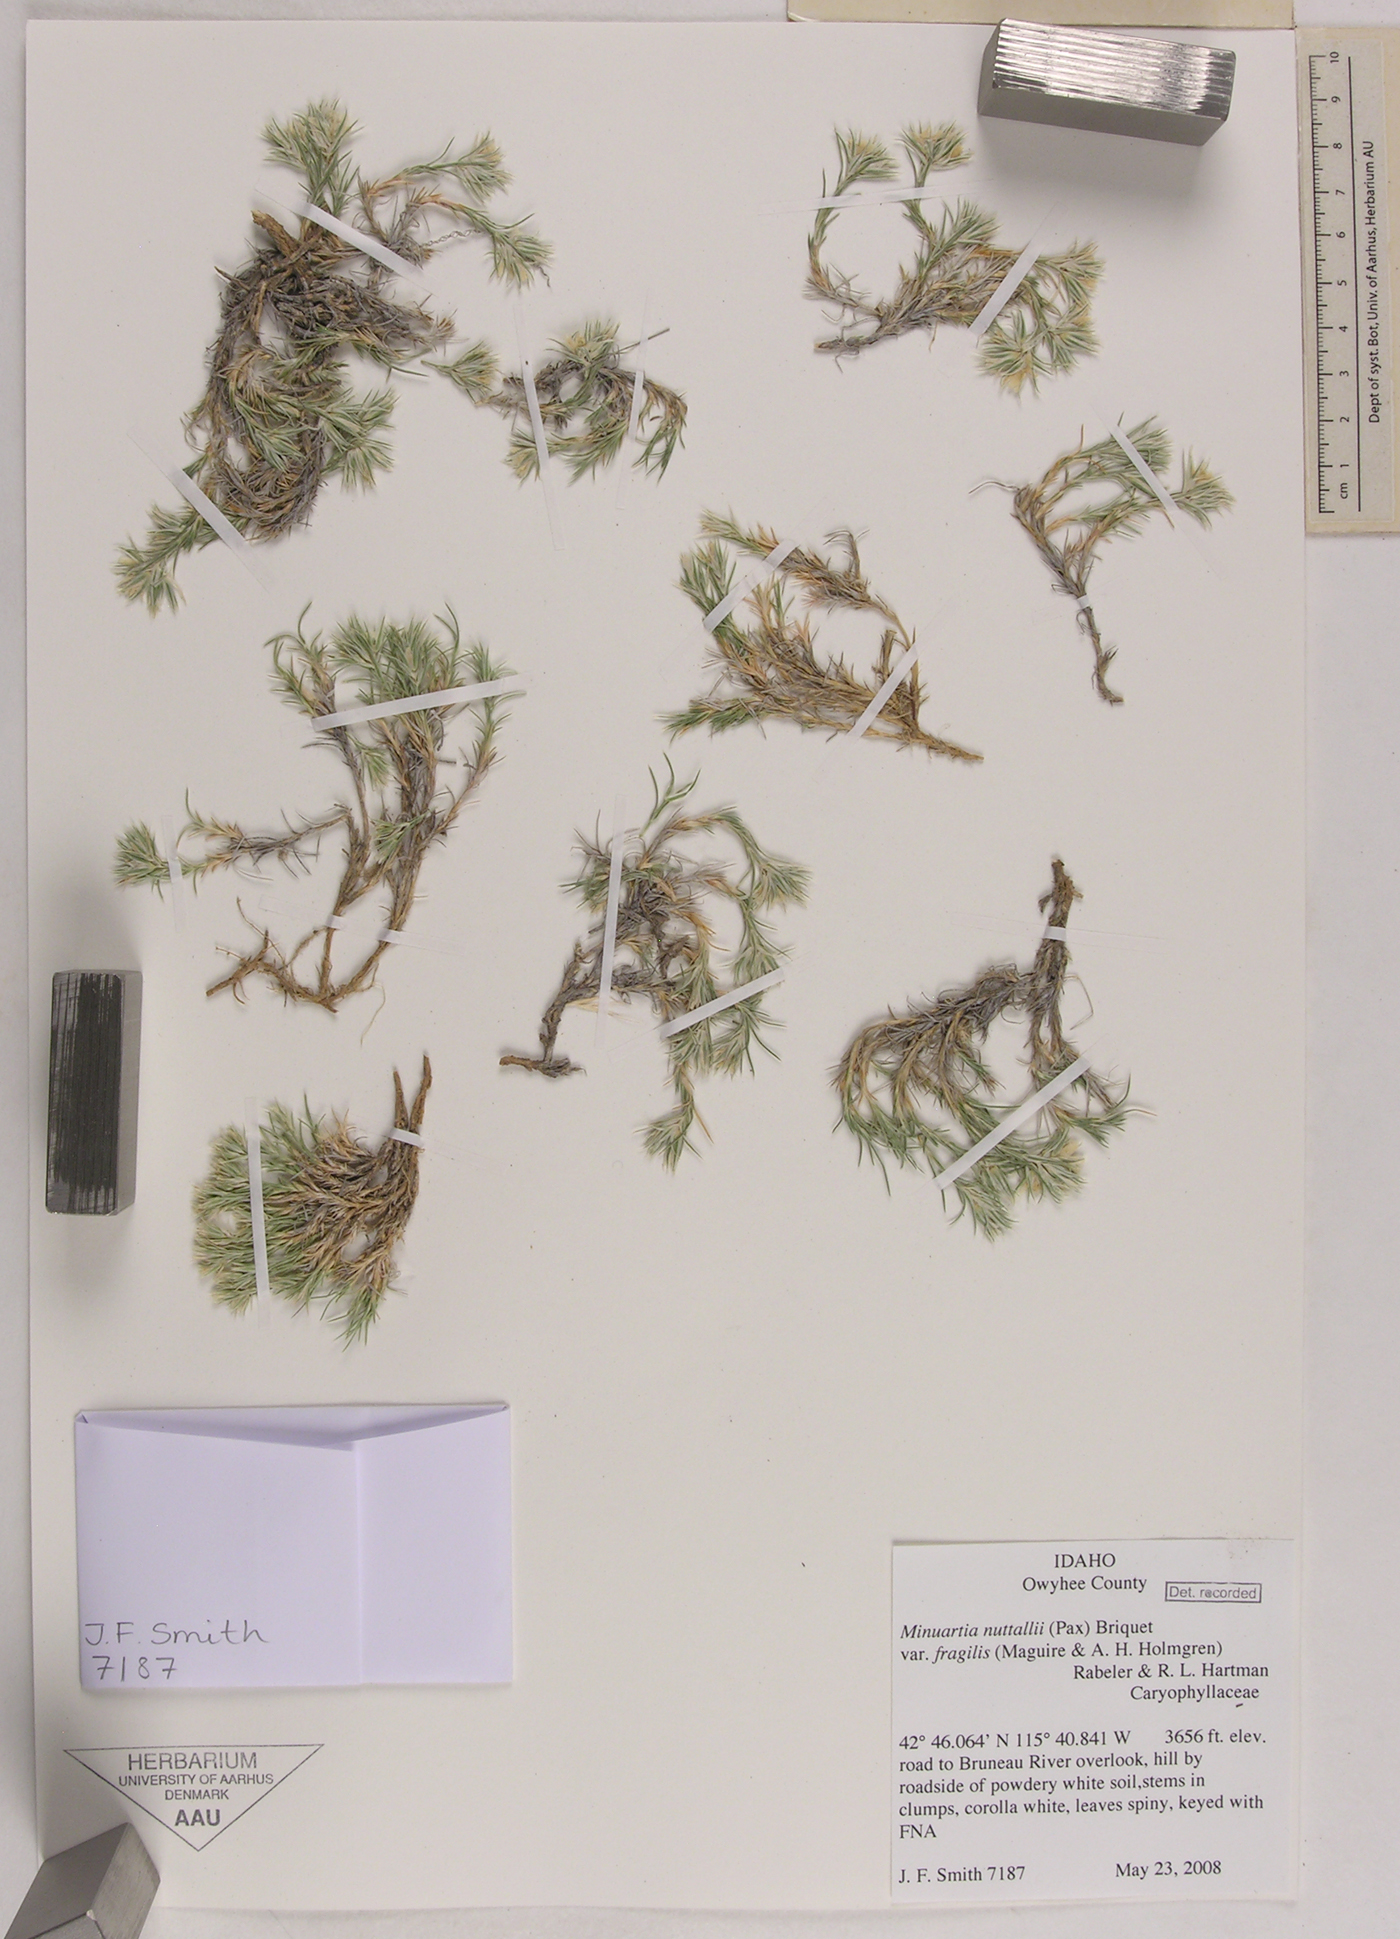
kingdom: Plantae
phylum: Tracheophyta
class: Magnoliopsida
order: Caryophyllales
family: Caryophyllaceae
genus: Sabulina
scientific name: Sabulina nuttallii
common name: Nuttall's stitchwort
